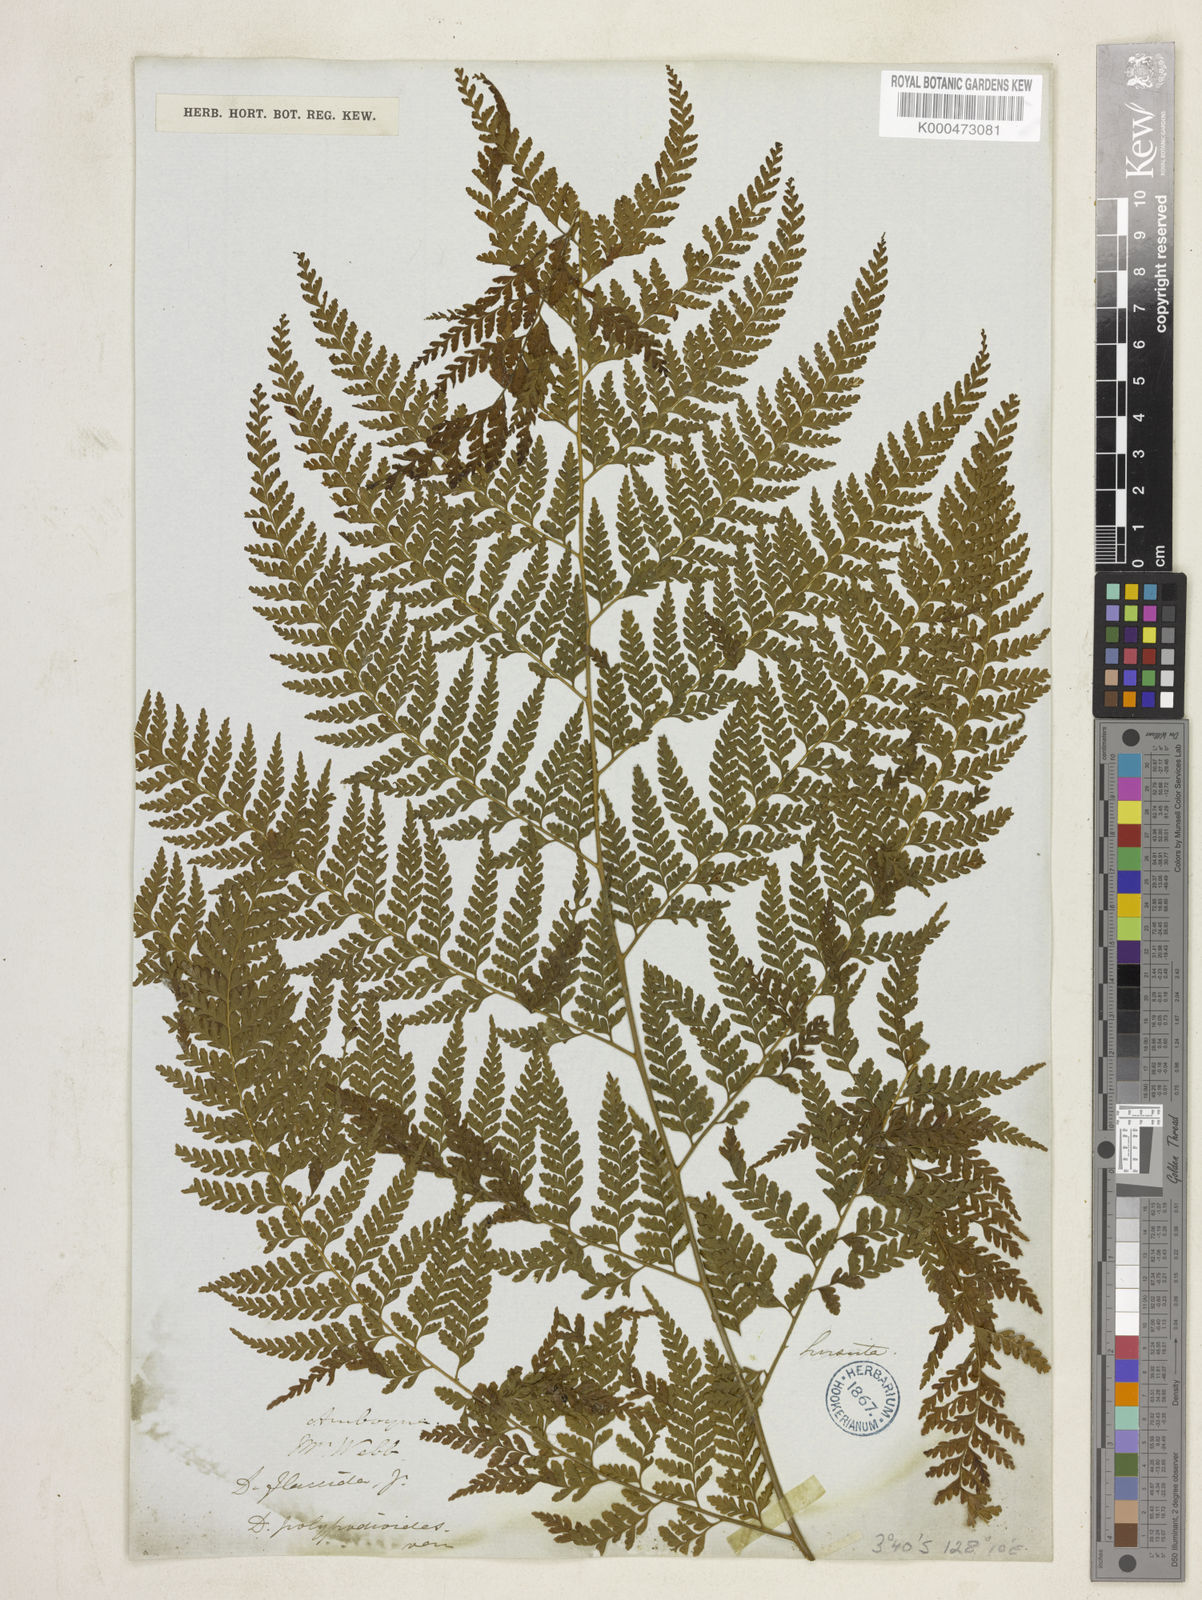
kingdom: Plantae
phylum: Tracheophyta
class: Polypodiopsida
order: Polypodiales
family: Dennstaedtiaceae
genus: Microlepia
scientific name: Microlepia speluncae
